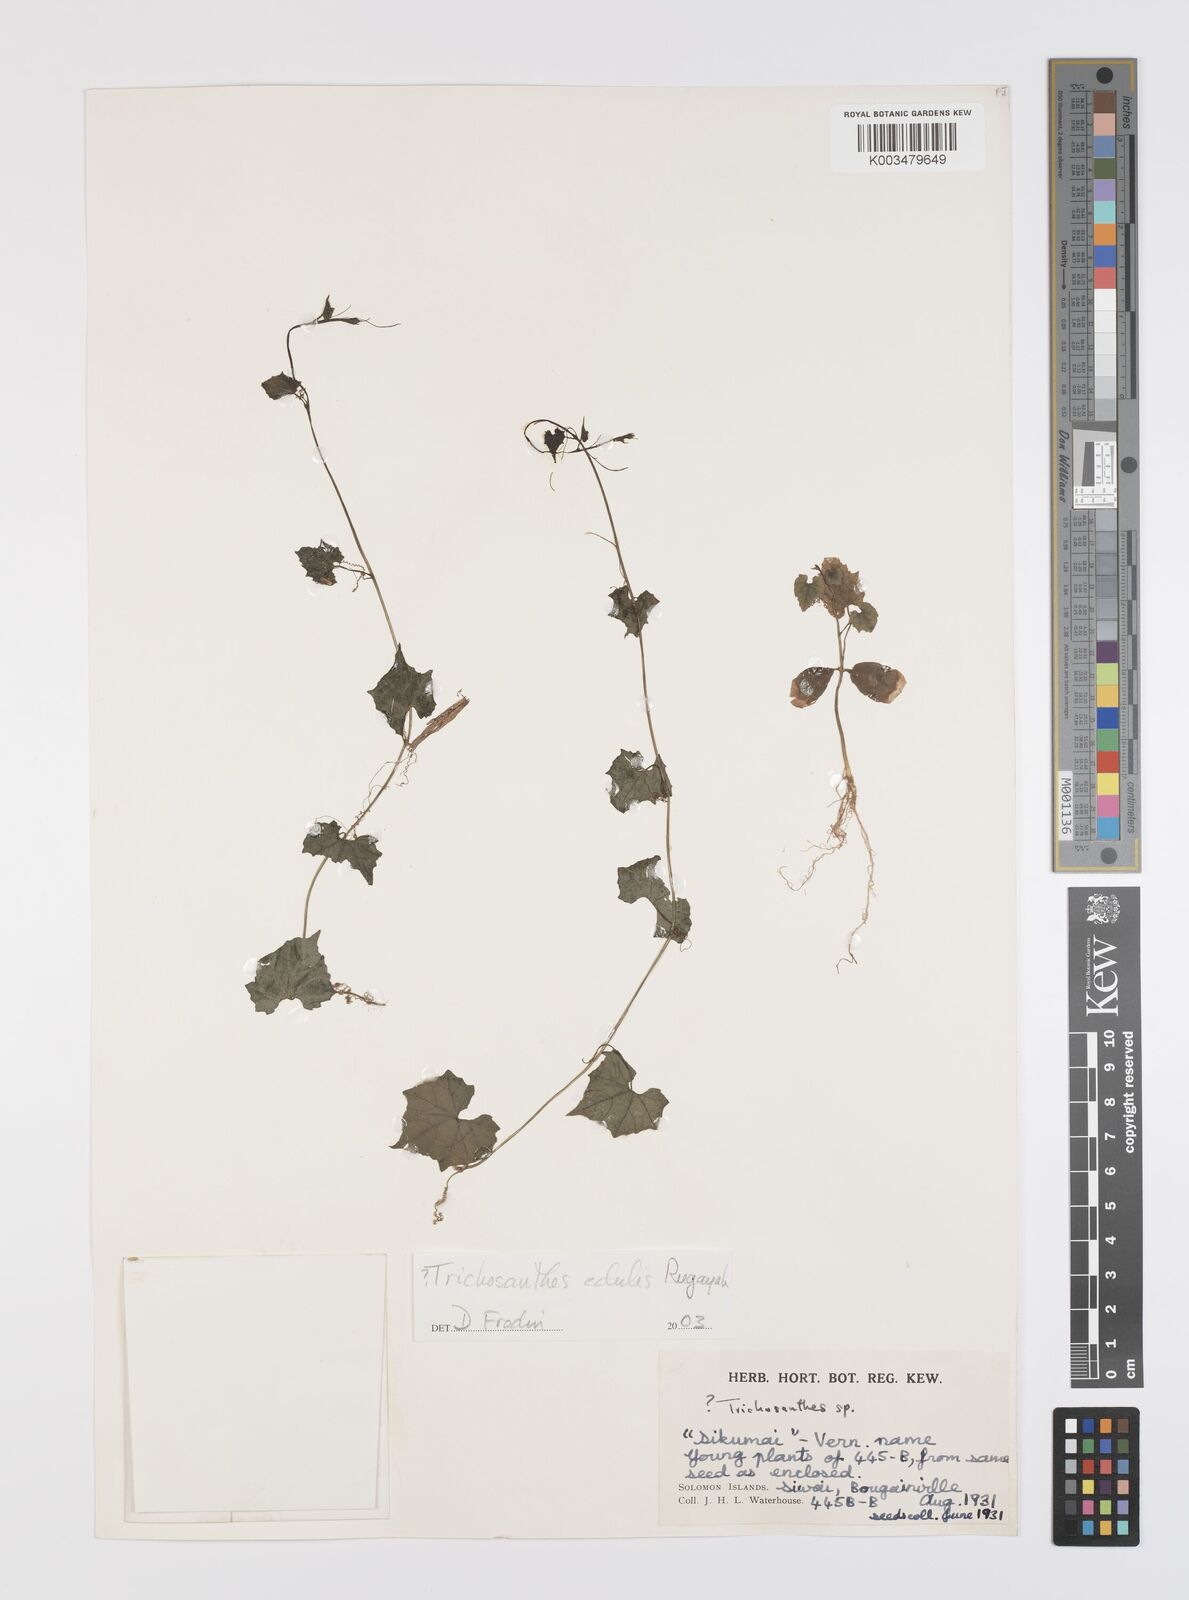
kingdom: Plantae
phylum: Tracheophyta
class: Magnoliopsida
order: Cucurbitales
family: Cucurbitaceae
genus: Trichosanthes
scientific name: Trichosanthes
